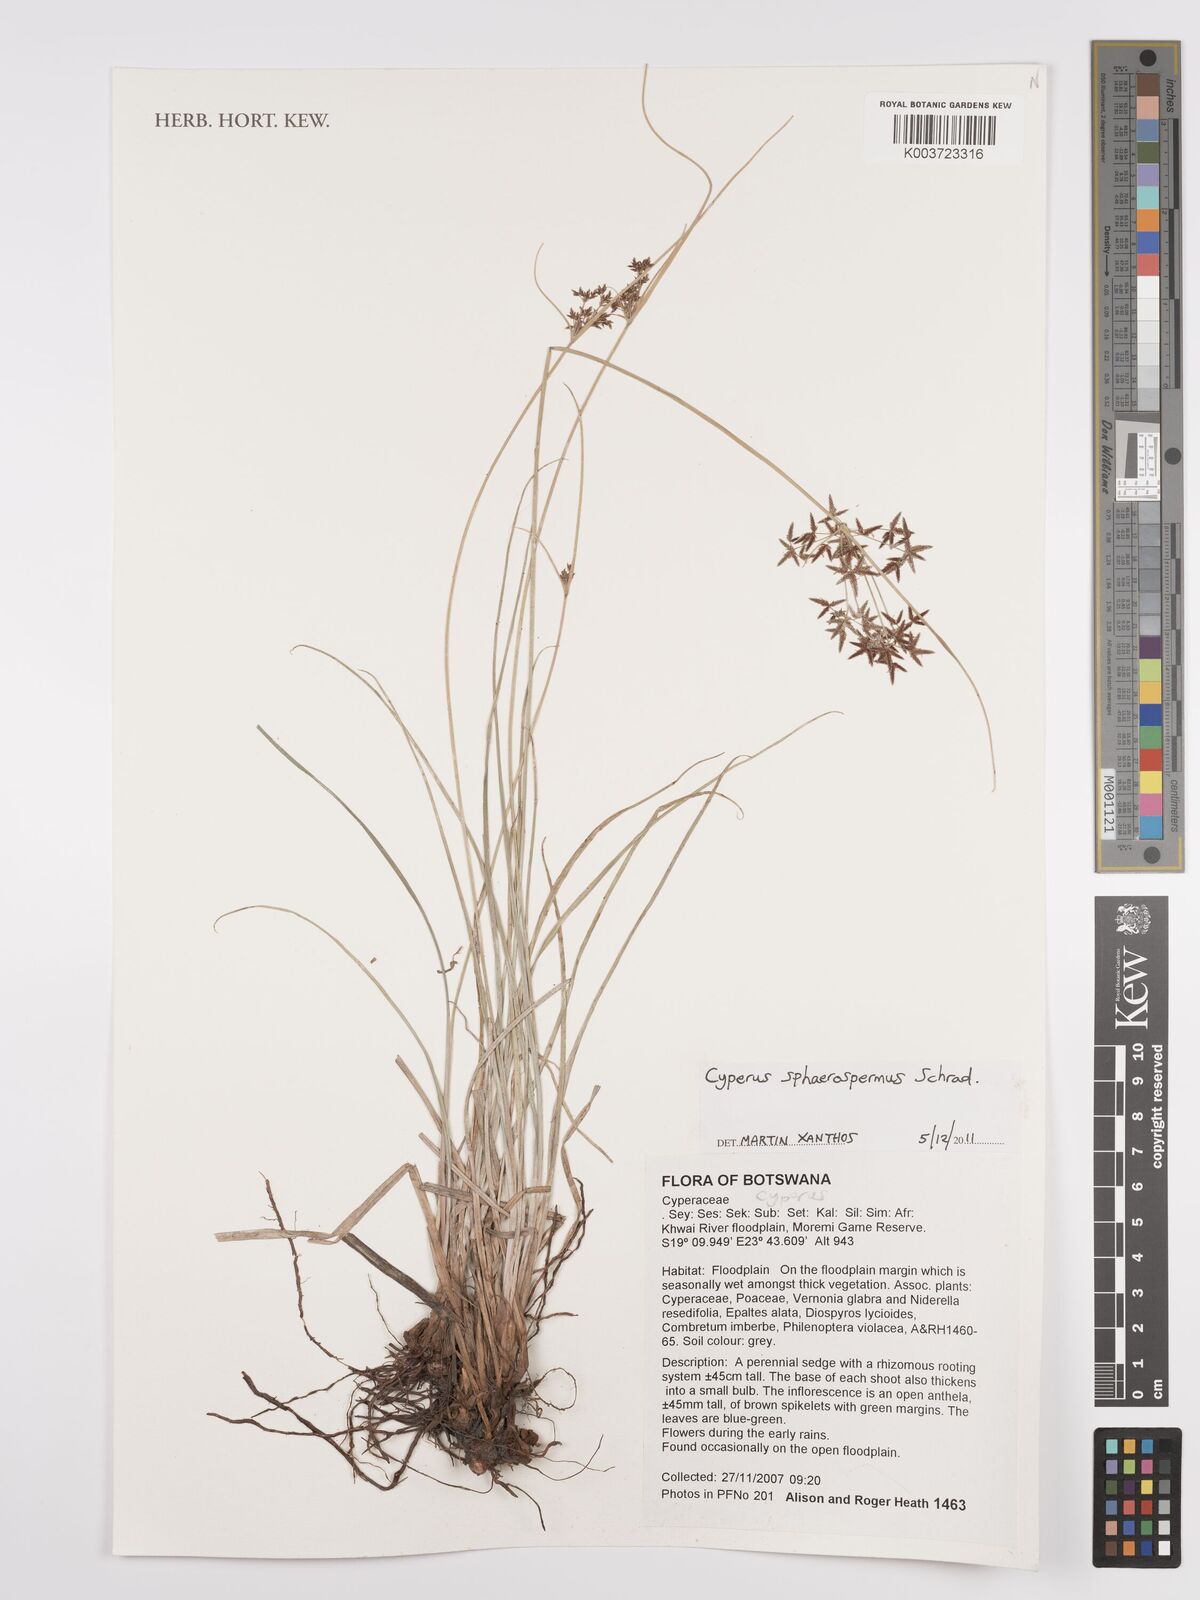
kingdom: Plantae
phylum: Tracheophyta
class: Liliopsida
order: Poales
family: Cyperaceae
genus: Cyperus
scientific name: Cyperus denudatus
